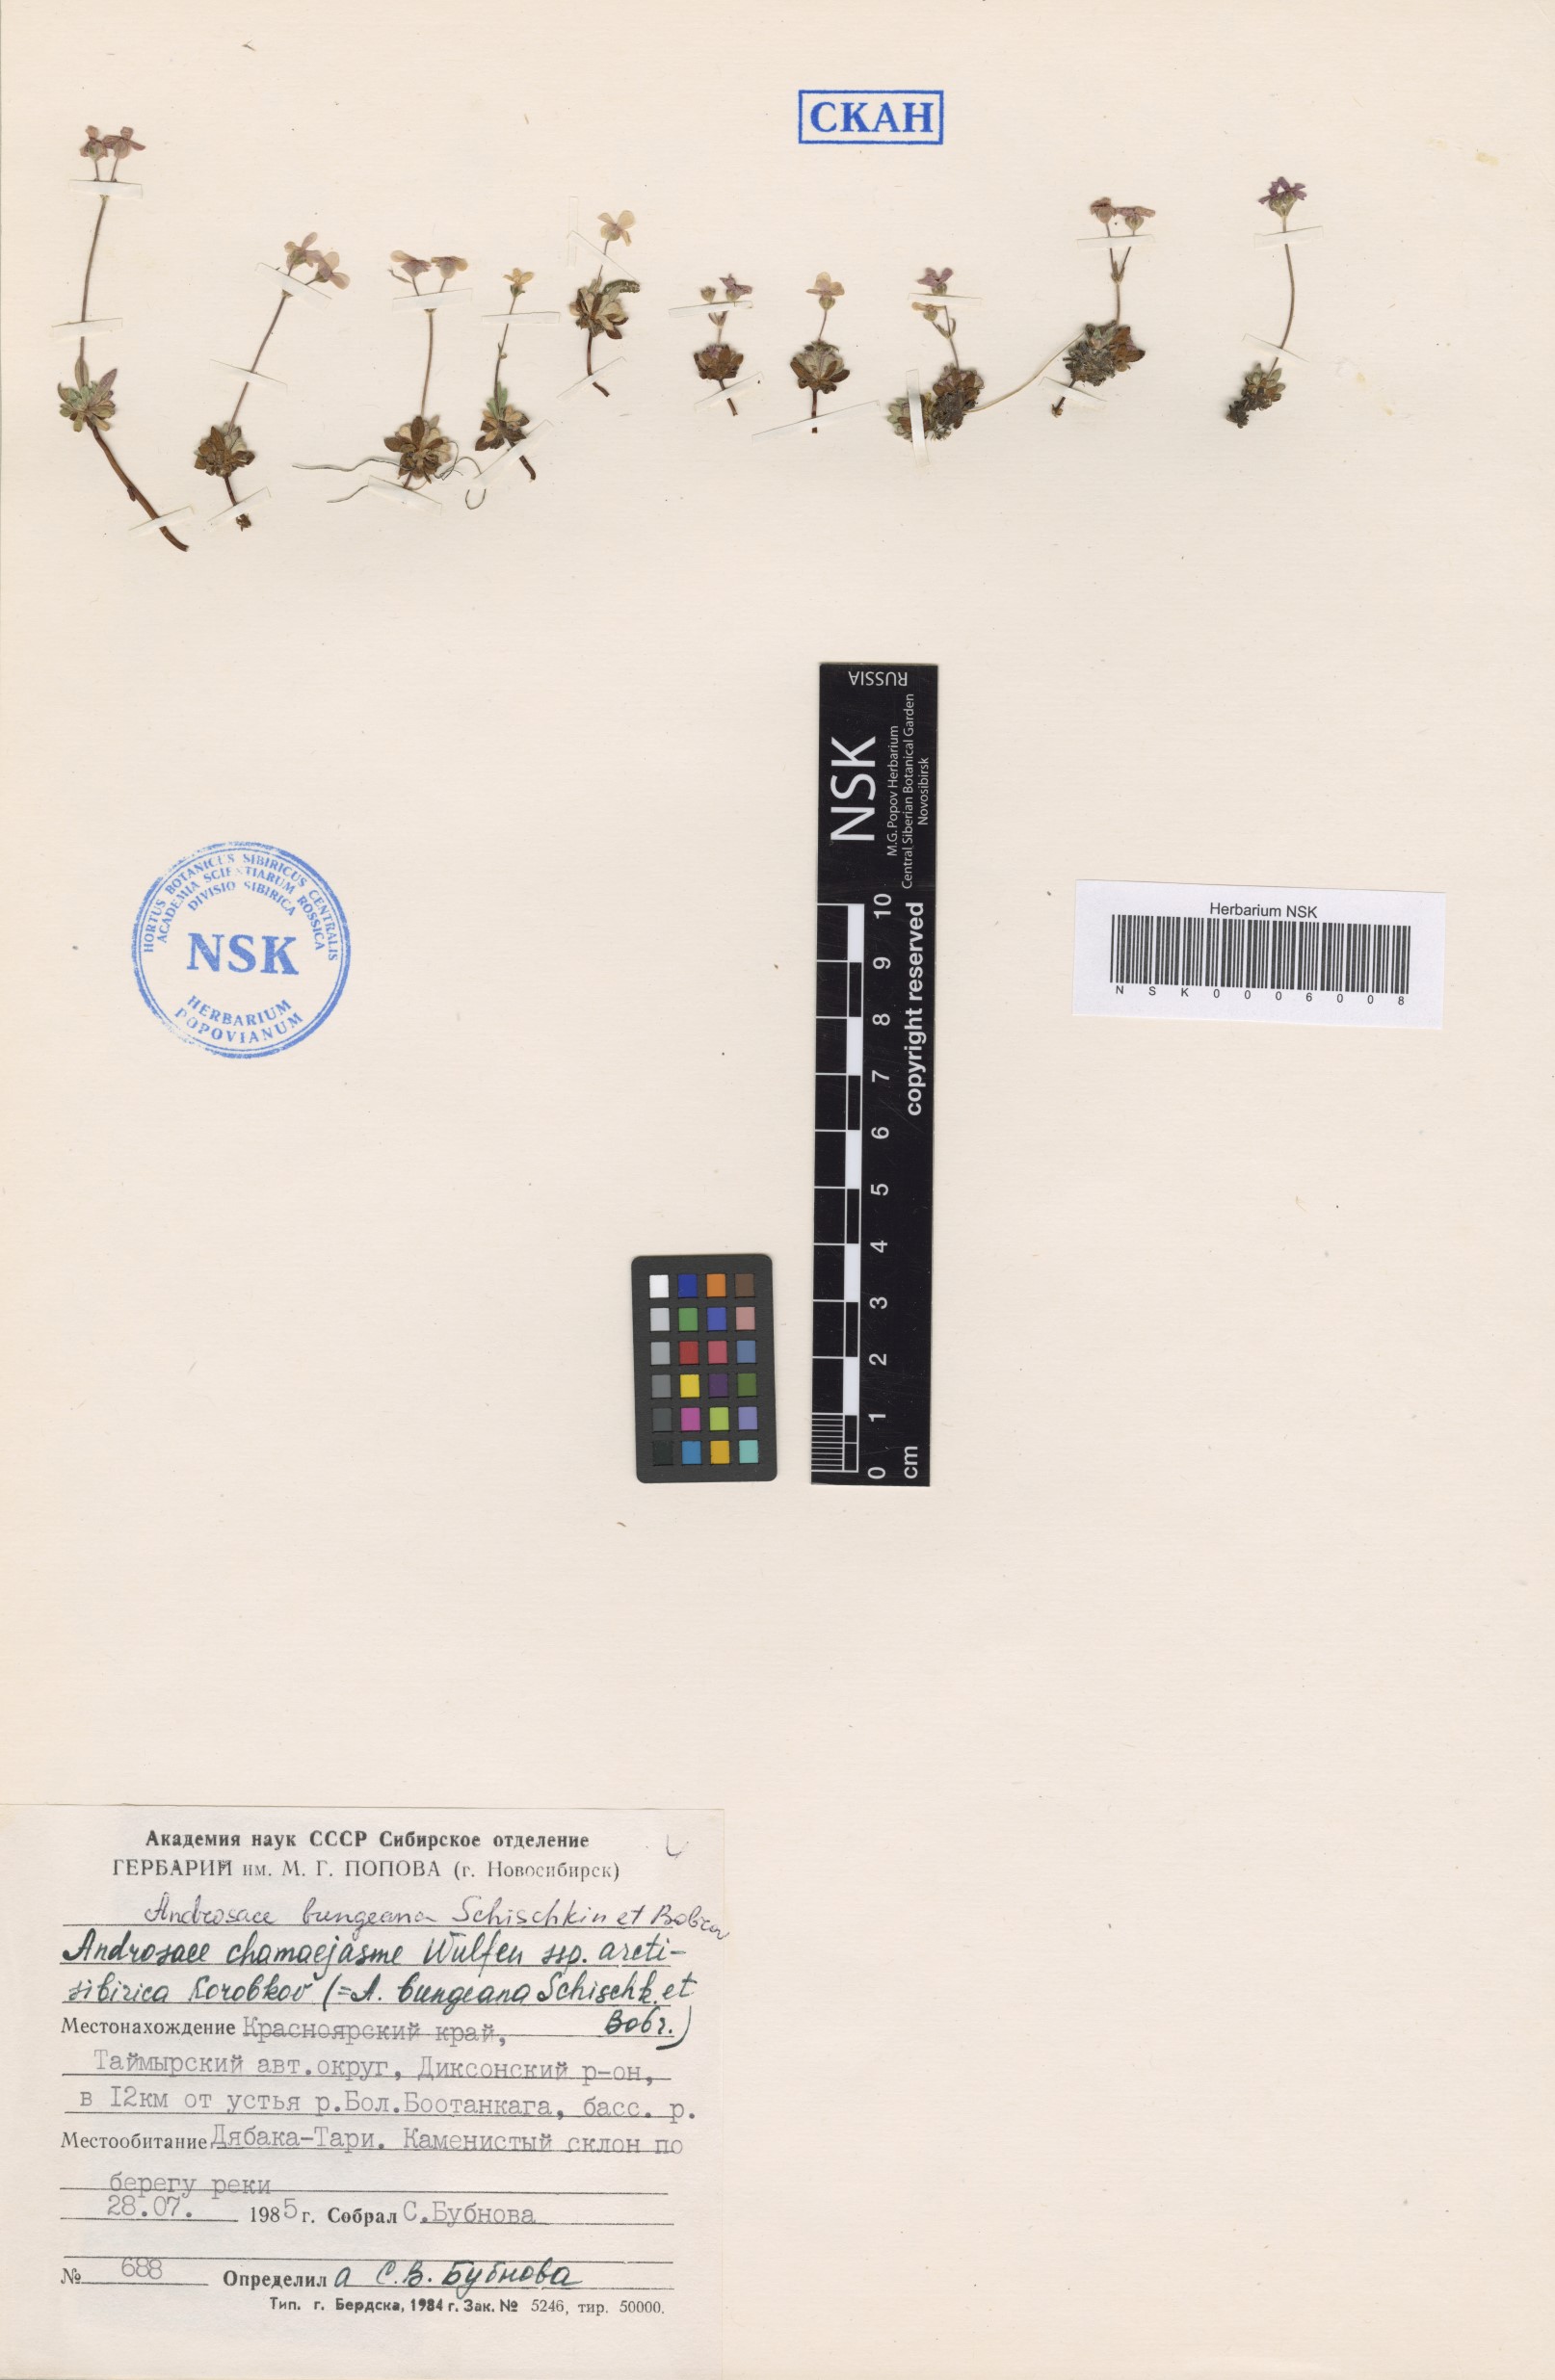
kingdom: Plantae
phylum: Tracheophyta
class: Magnoliopsida
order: Ericales
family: Primulaceae
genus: Androsace
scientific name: Androsace bungeana
